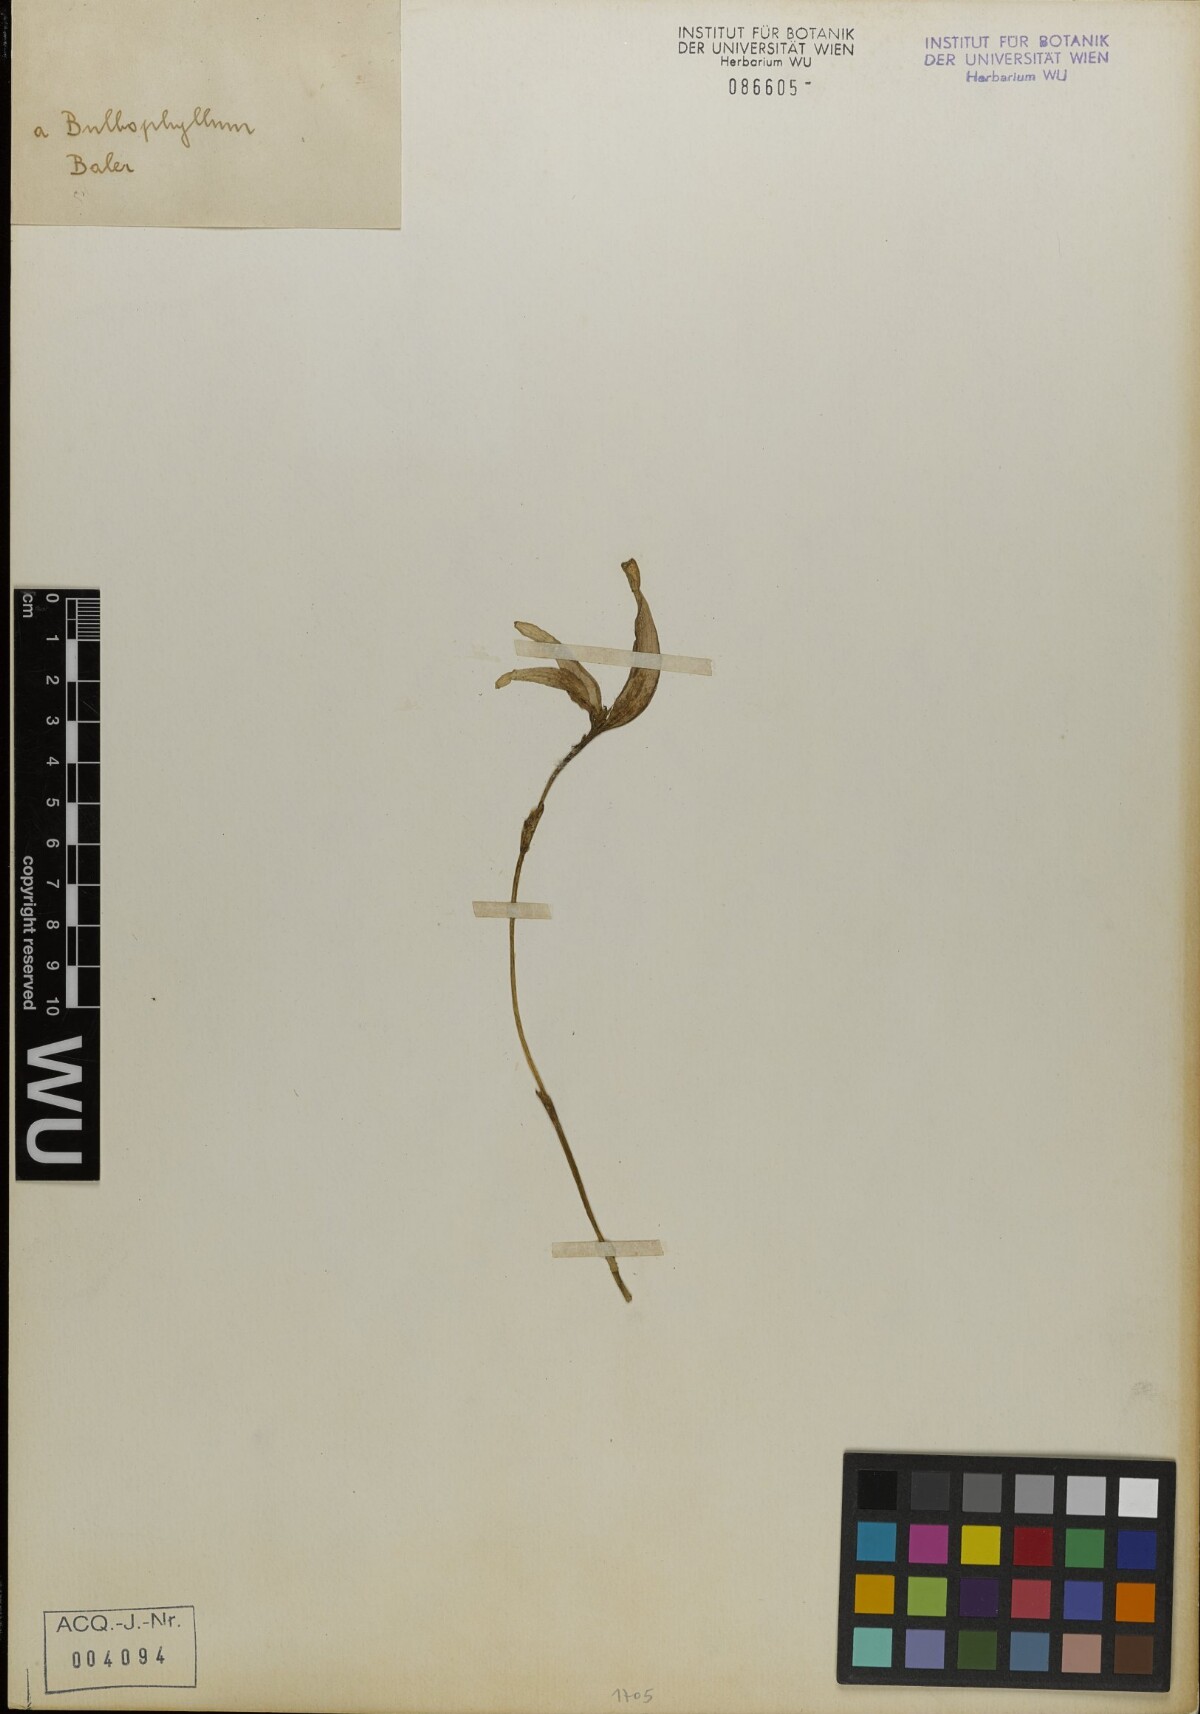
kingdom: Plantae
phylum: Tracheophyta
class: Liliopsida
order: Asparagales
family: Orchidaceae
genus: Bulbophyllum
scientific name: Bulbophyllum
